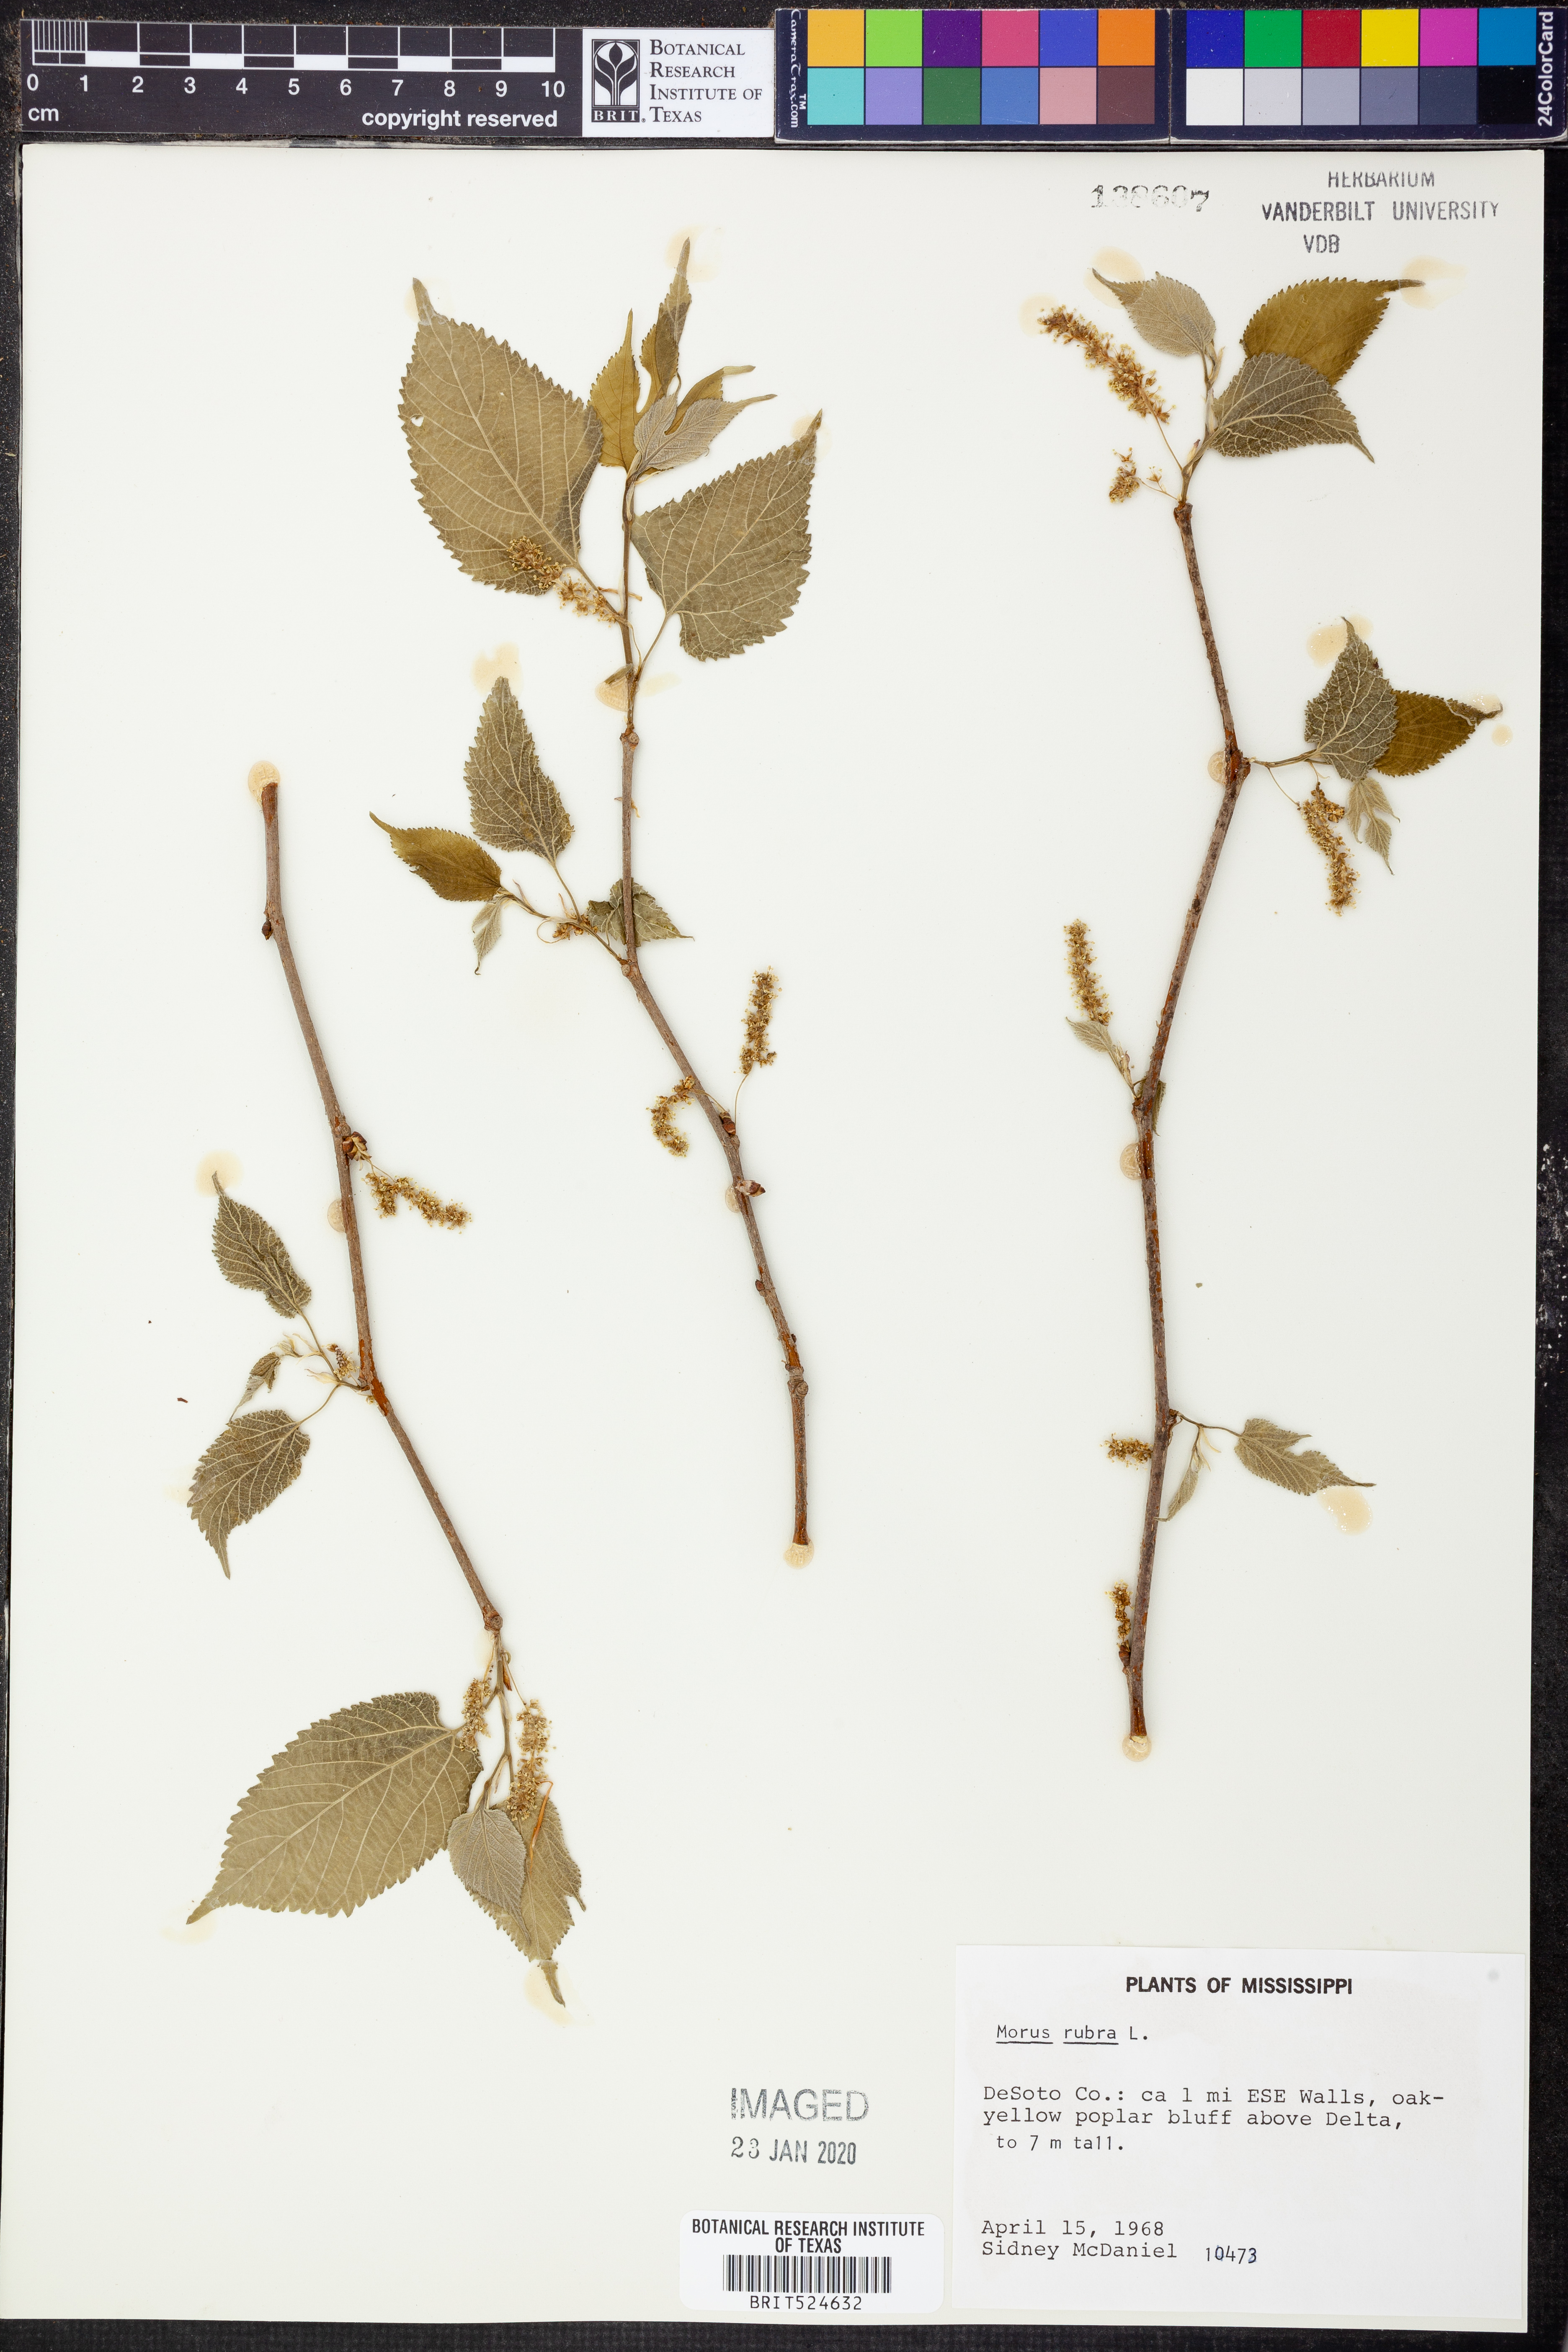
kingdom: Plantae
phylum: Tracheophyta
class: Magnoliopsida
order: Rosales
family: Moraceae
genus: Morus
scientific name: Morus rubra
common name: Red mulberry
